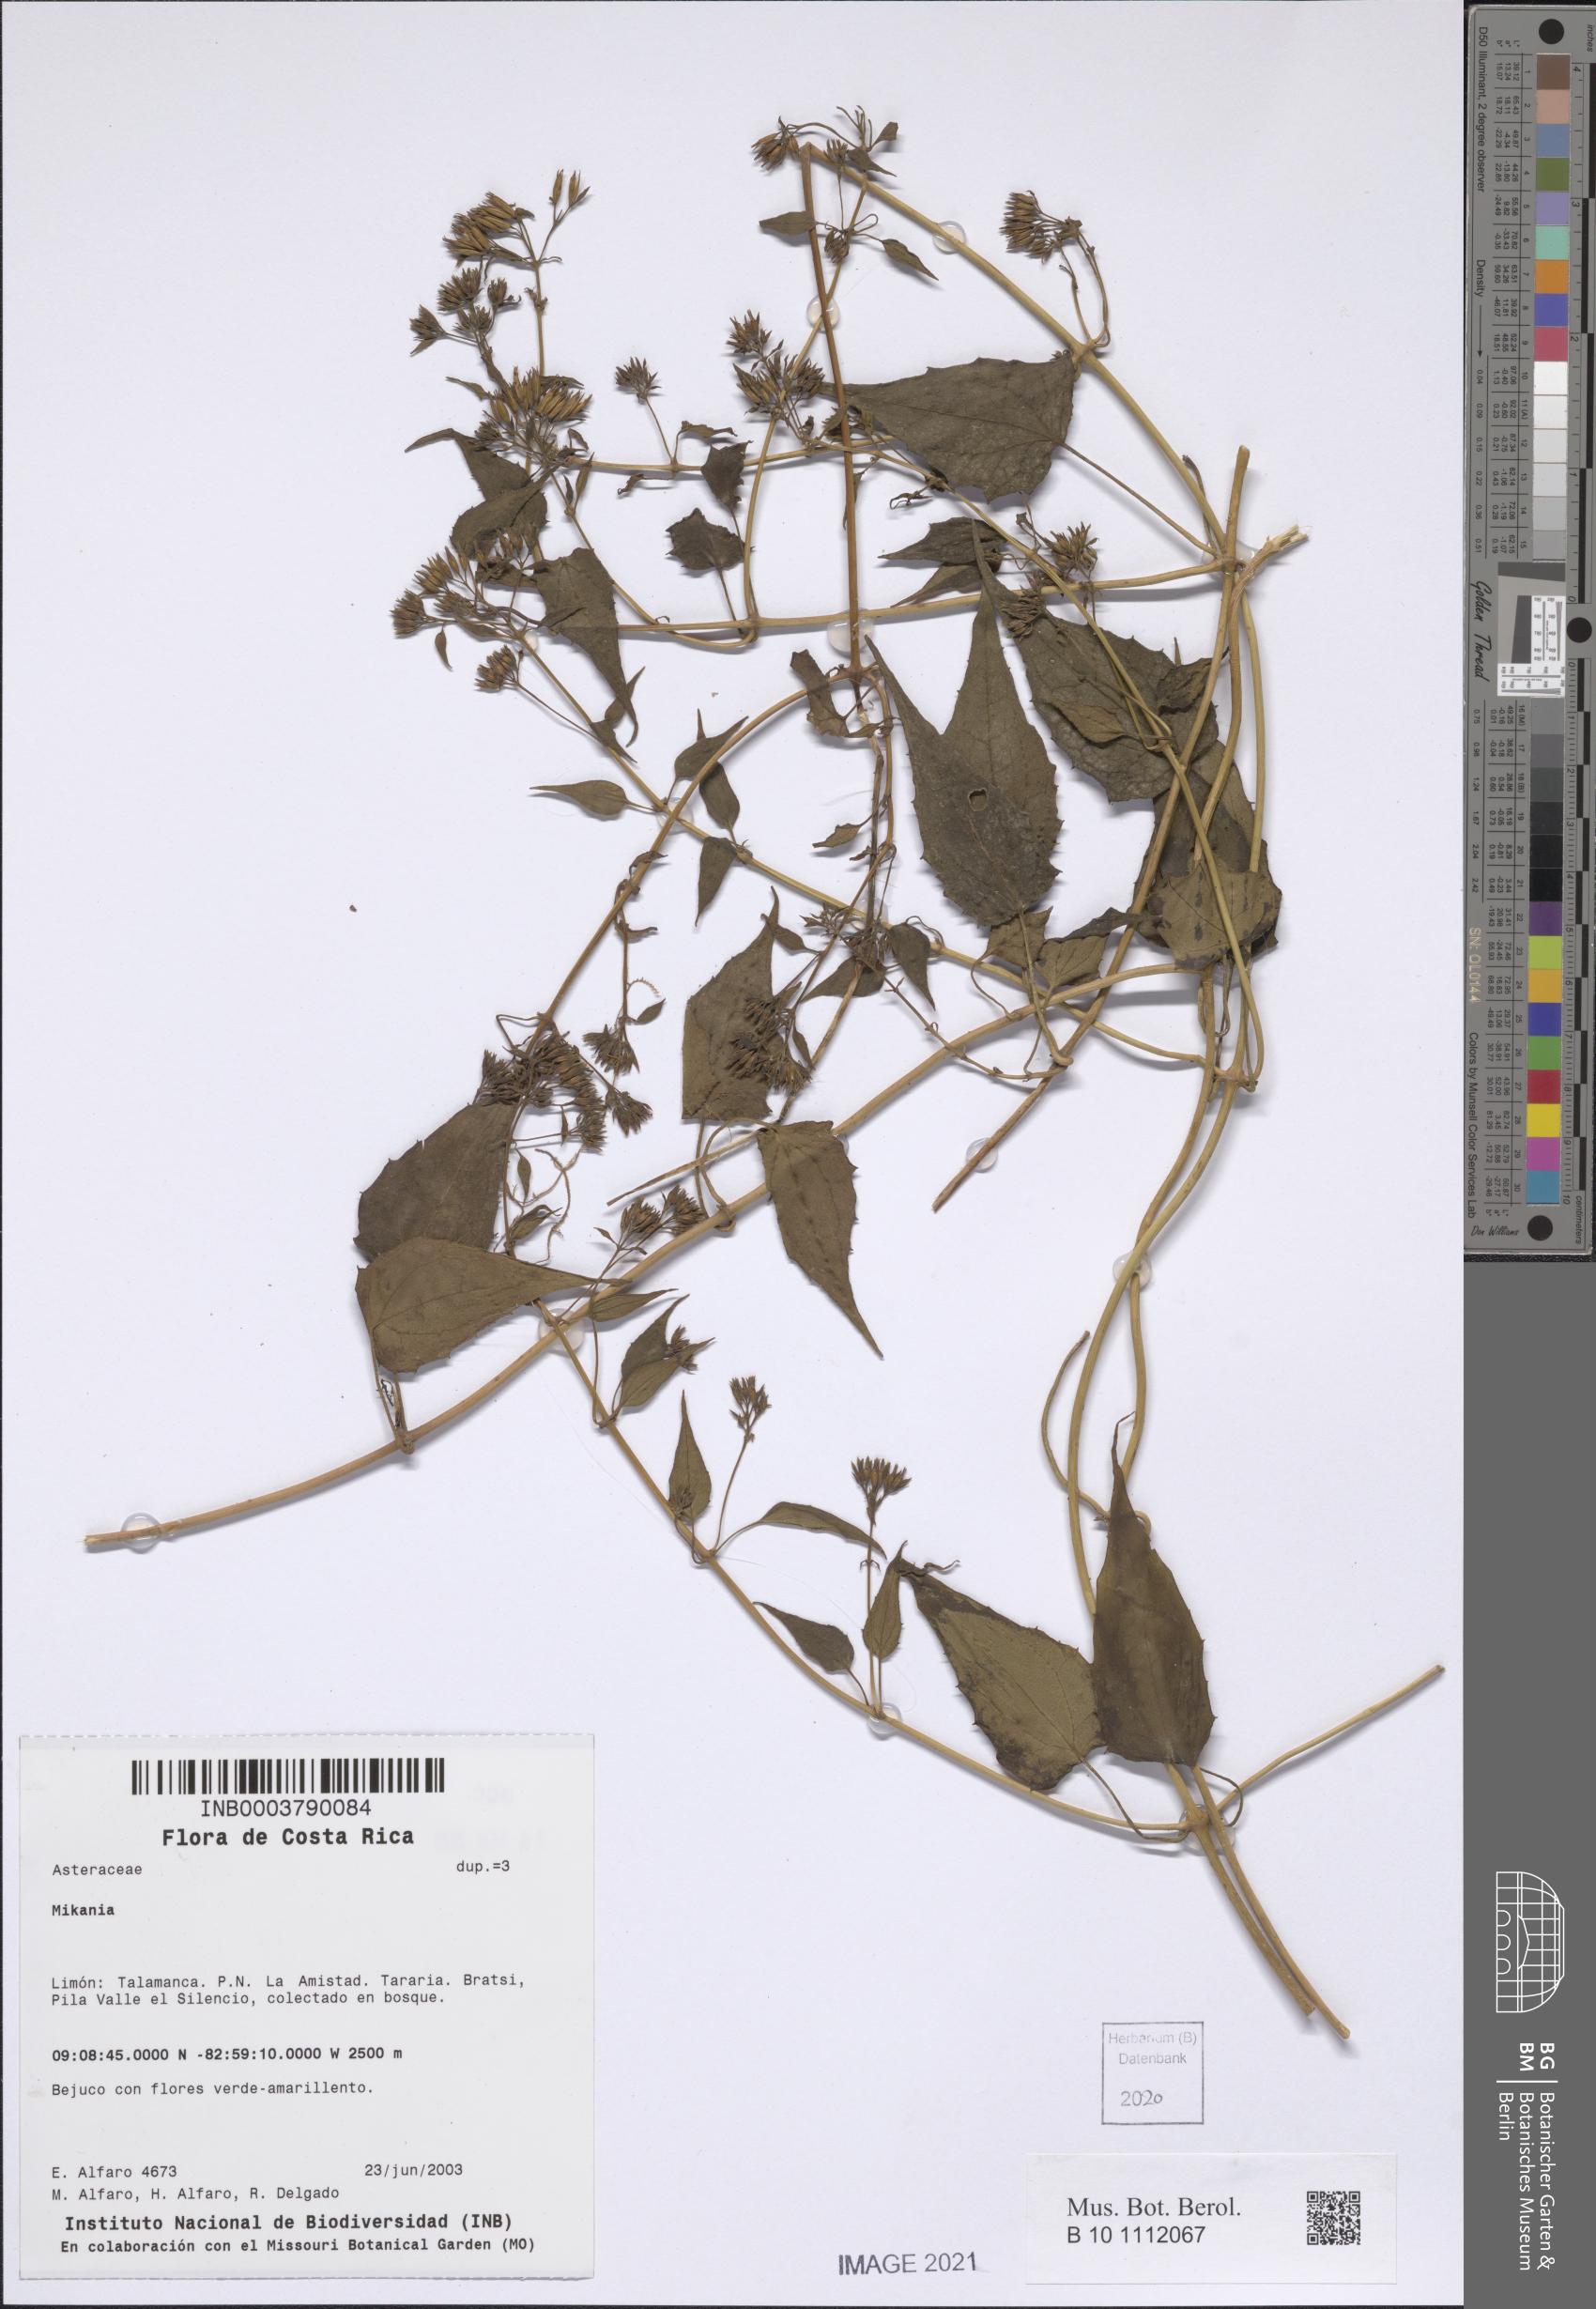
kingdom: Plantae
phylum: Tracheophyta
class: Magnoliopsida
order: Asterales
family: Asteraceae
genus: Mikania
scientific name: Mikania
